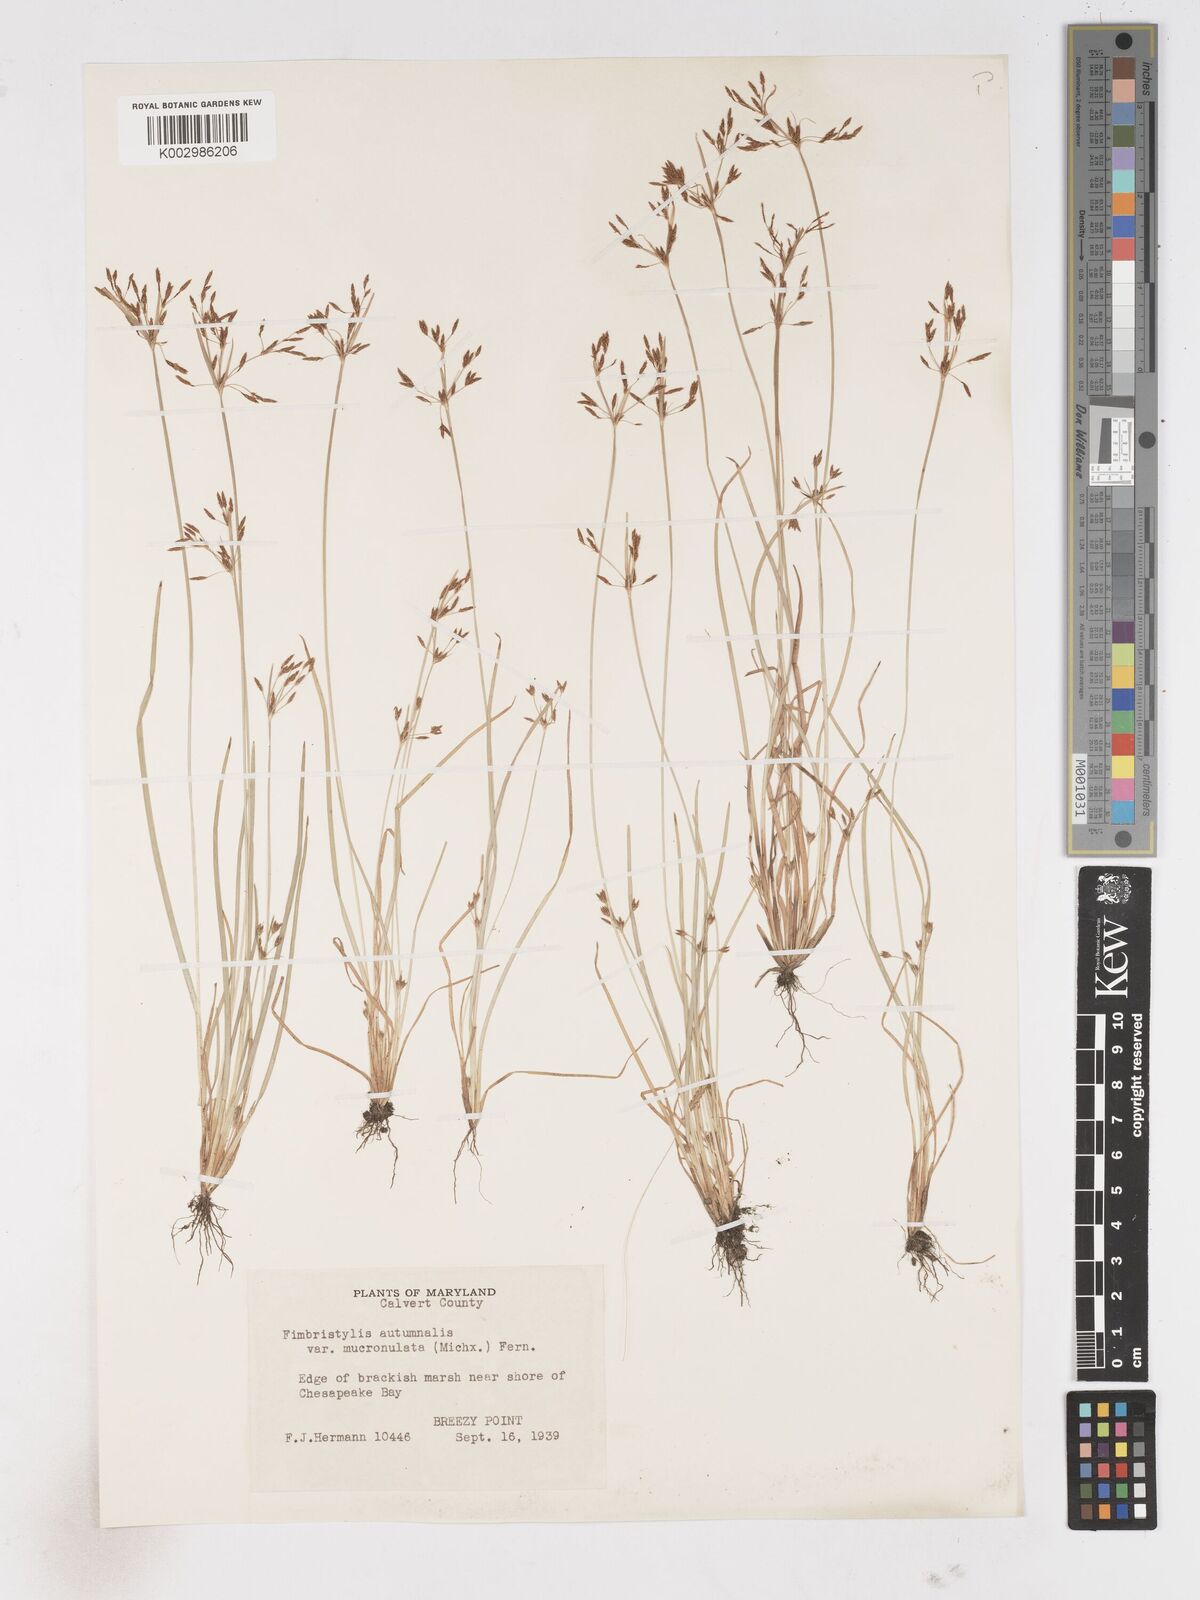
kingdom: Plantae
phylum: Tracheophyta
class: Liliopsida
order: Poales
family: Cyperaceae
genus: Fimbristylis
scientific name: Fimbristylis autumnalis
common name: Slender fimbristylis
